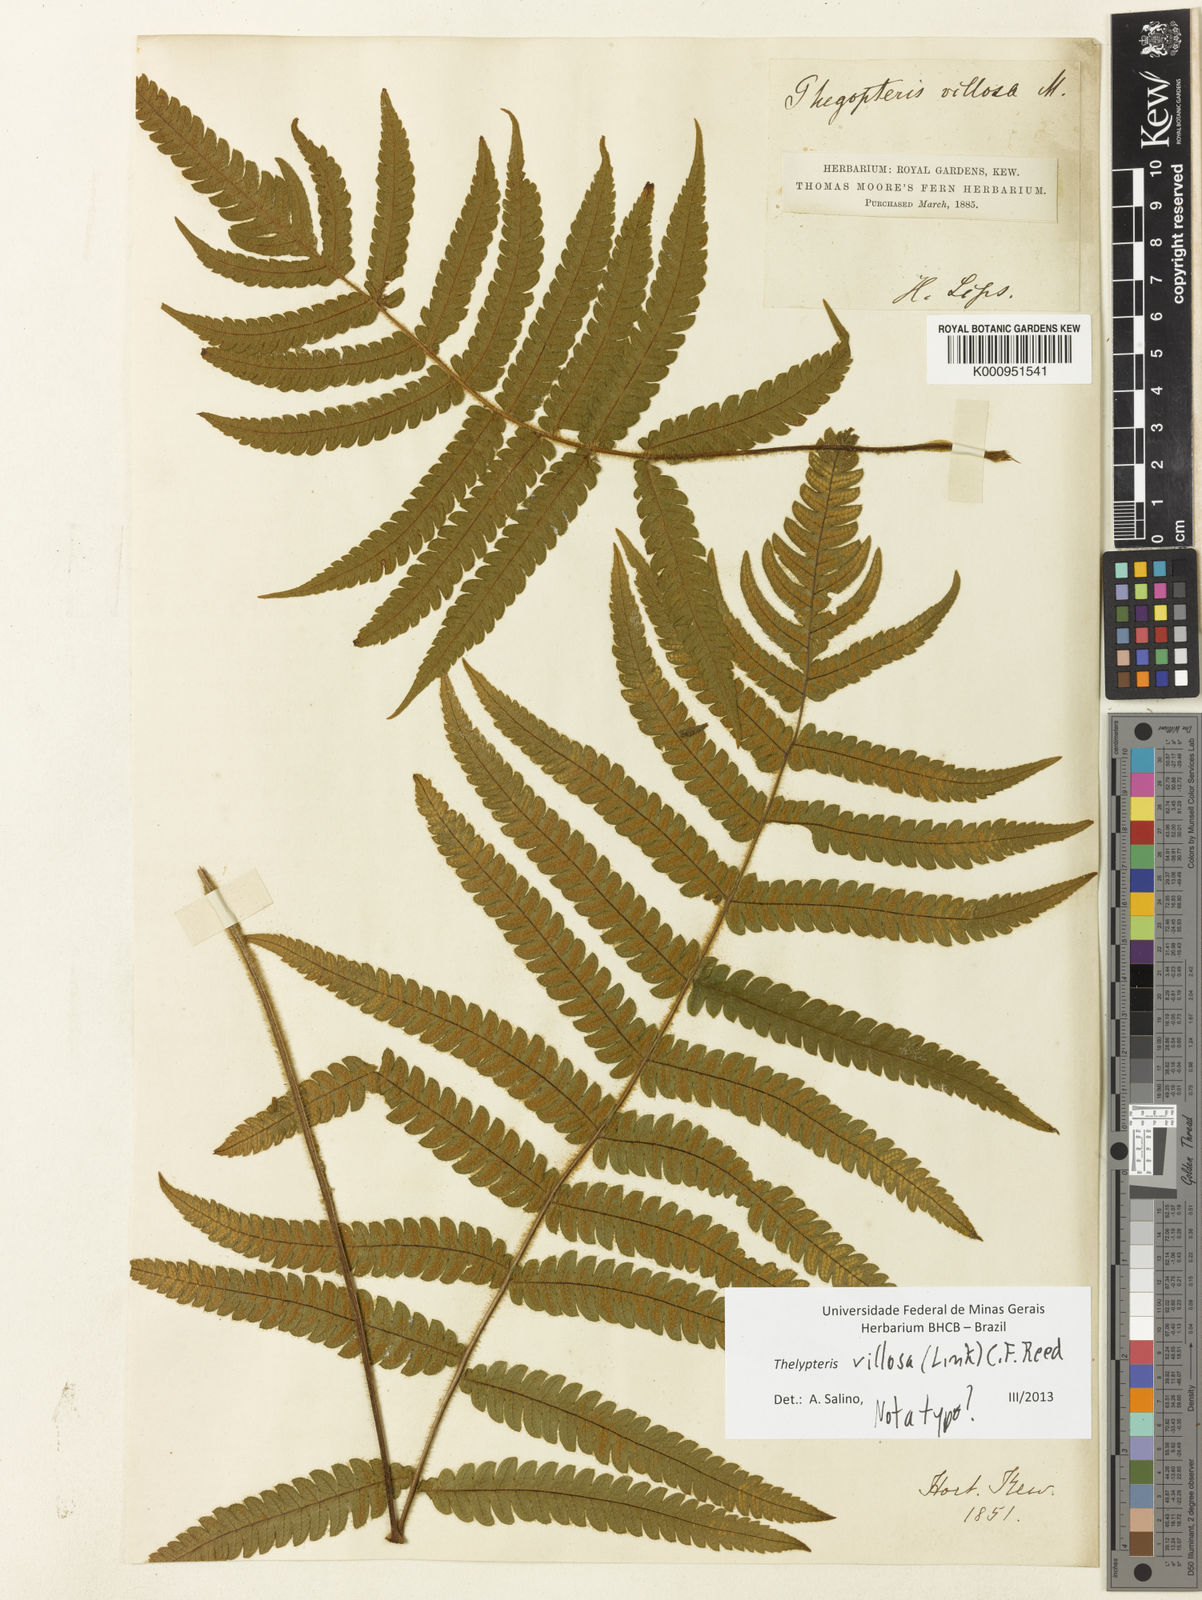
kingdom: Plantae
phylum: Tracheophyta
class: Polypodiopsida
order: Polypodiales
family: Thelypteridaceae
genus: Stegnogramma
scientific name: Stegnogramma
